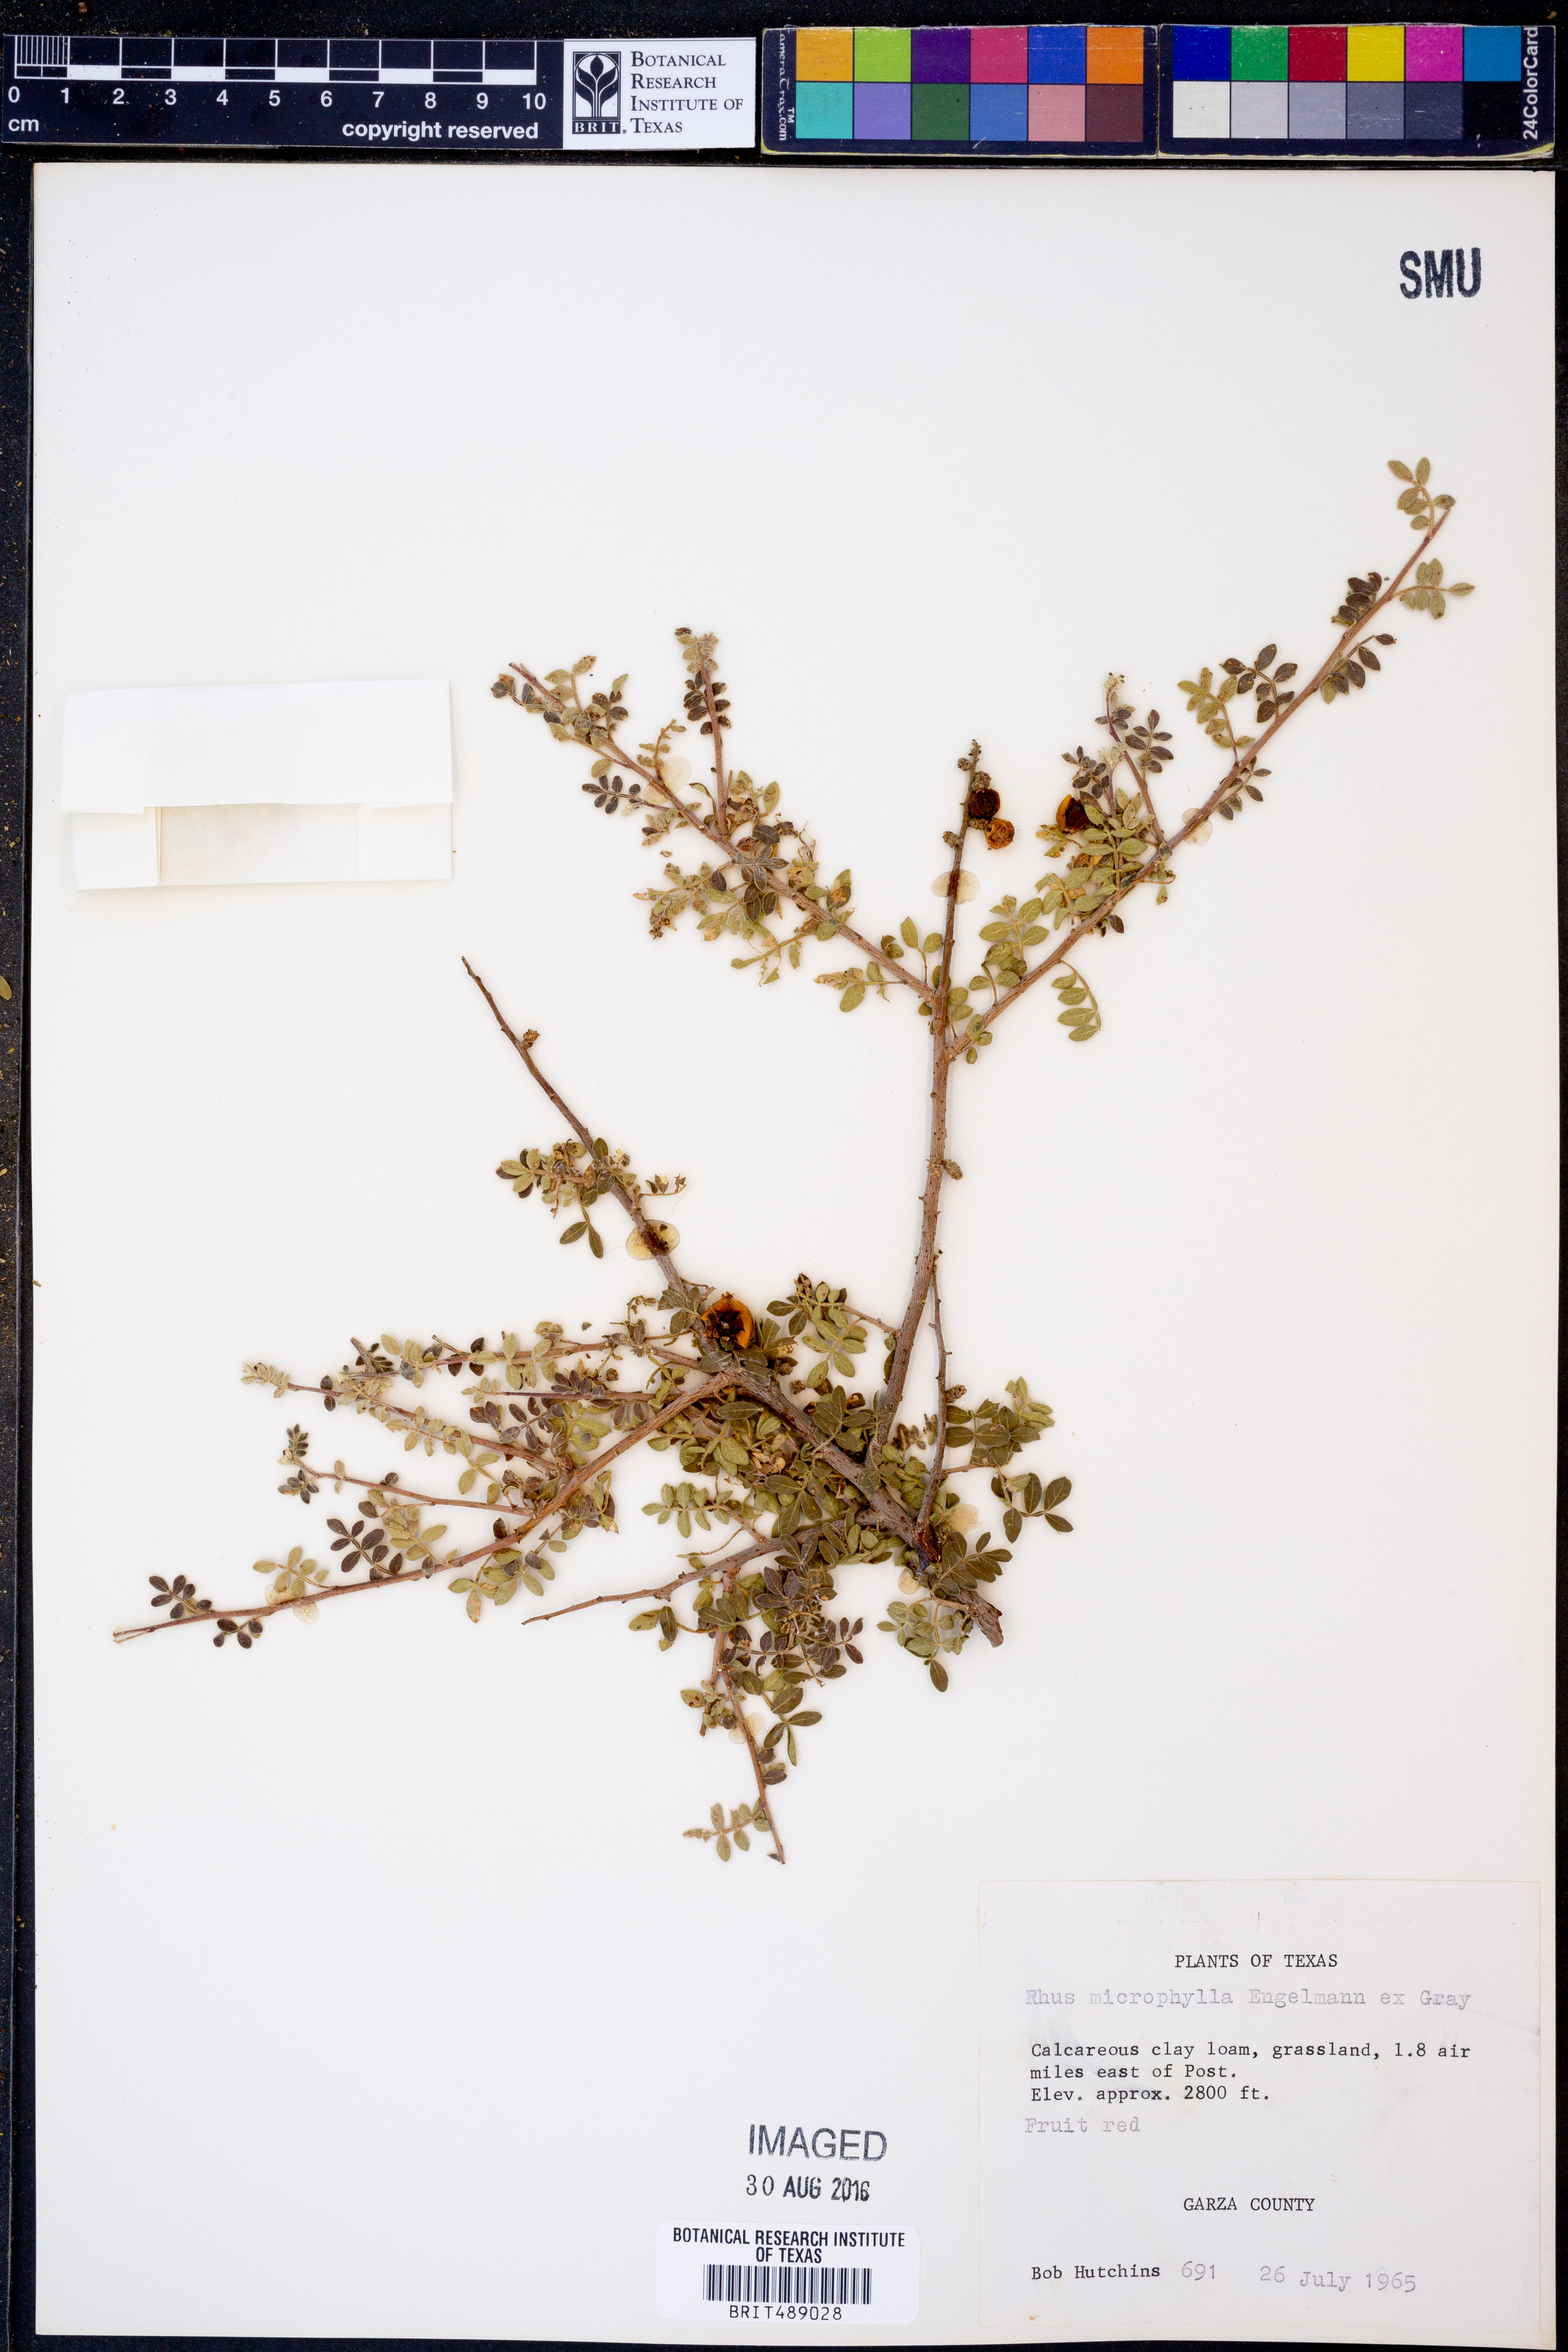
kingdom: Plantae
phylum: Tracheophyta
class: Magnoliopsida
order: Sapindales
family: Anacardiaceae
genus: Rhus
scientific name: Rhus microphylla
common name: Desert sumac
